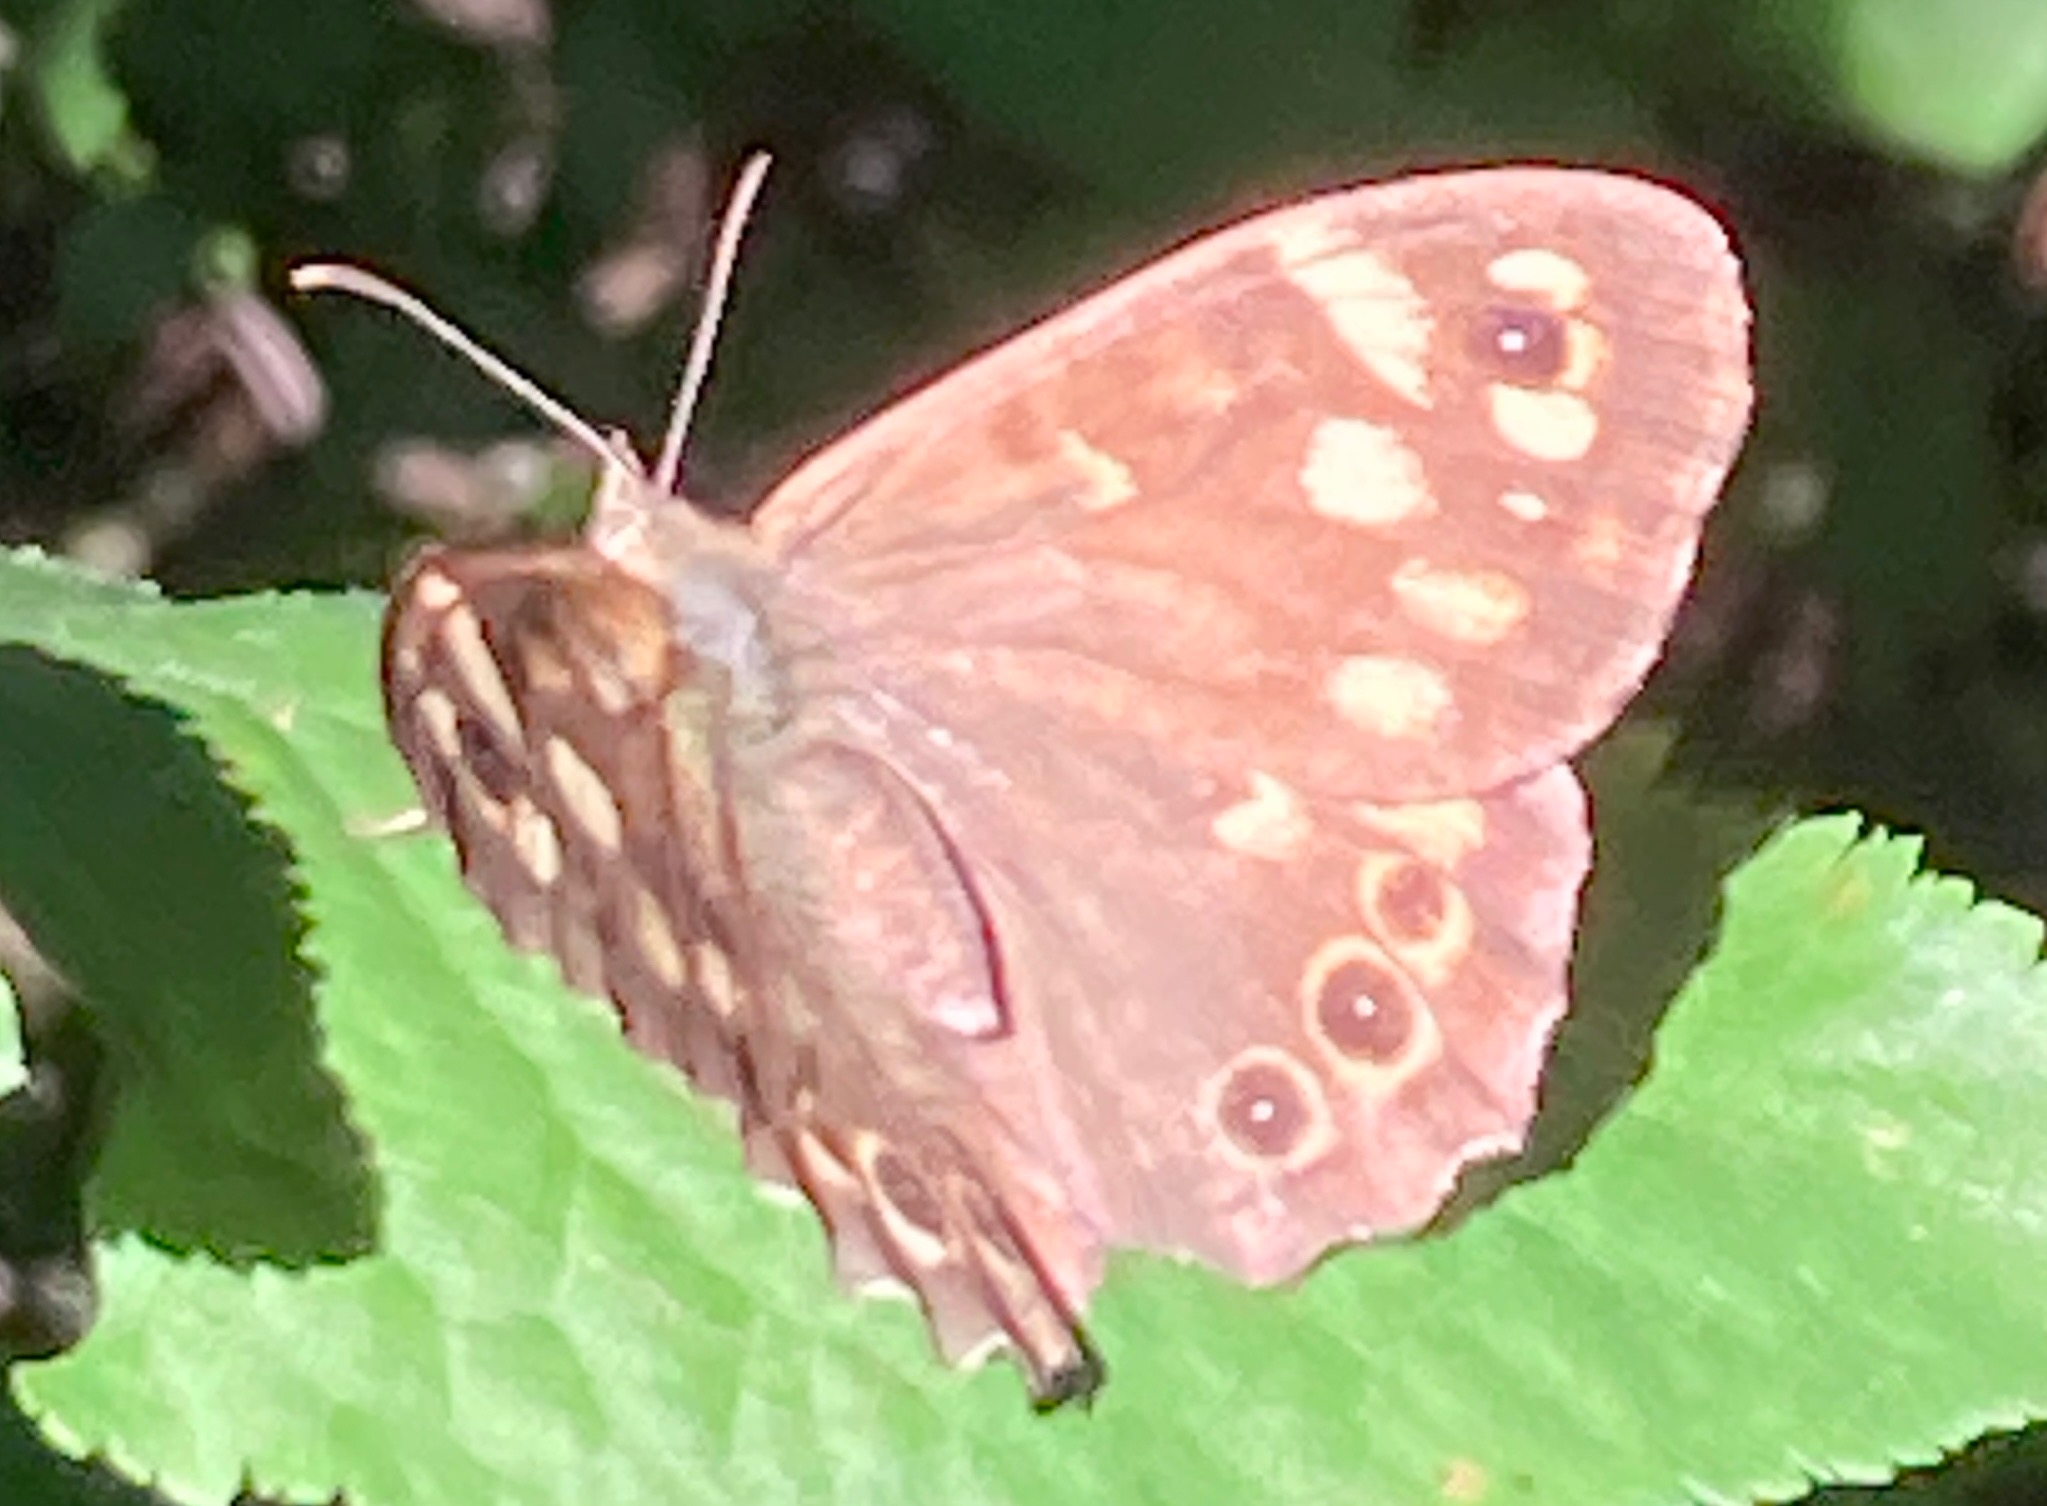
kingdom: Animalia
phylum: Arthropoda
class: Insecta
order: Lepidoptera
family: Nymphalidae
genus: Pararge
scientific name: Pararge aegeria
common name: Skovrandøje
